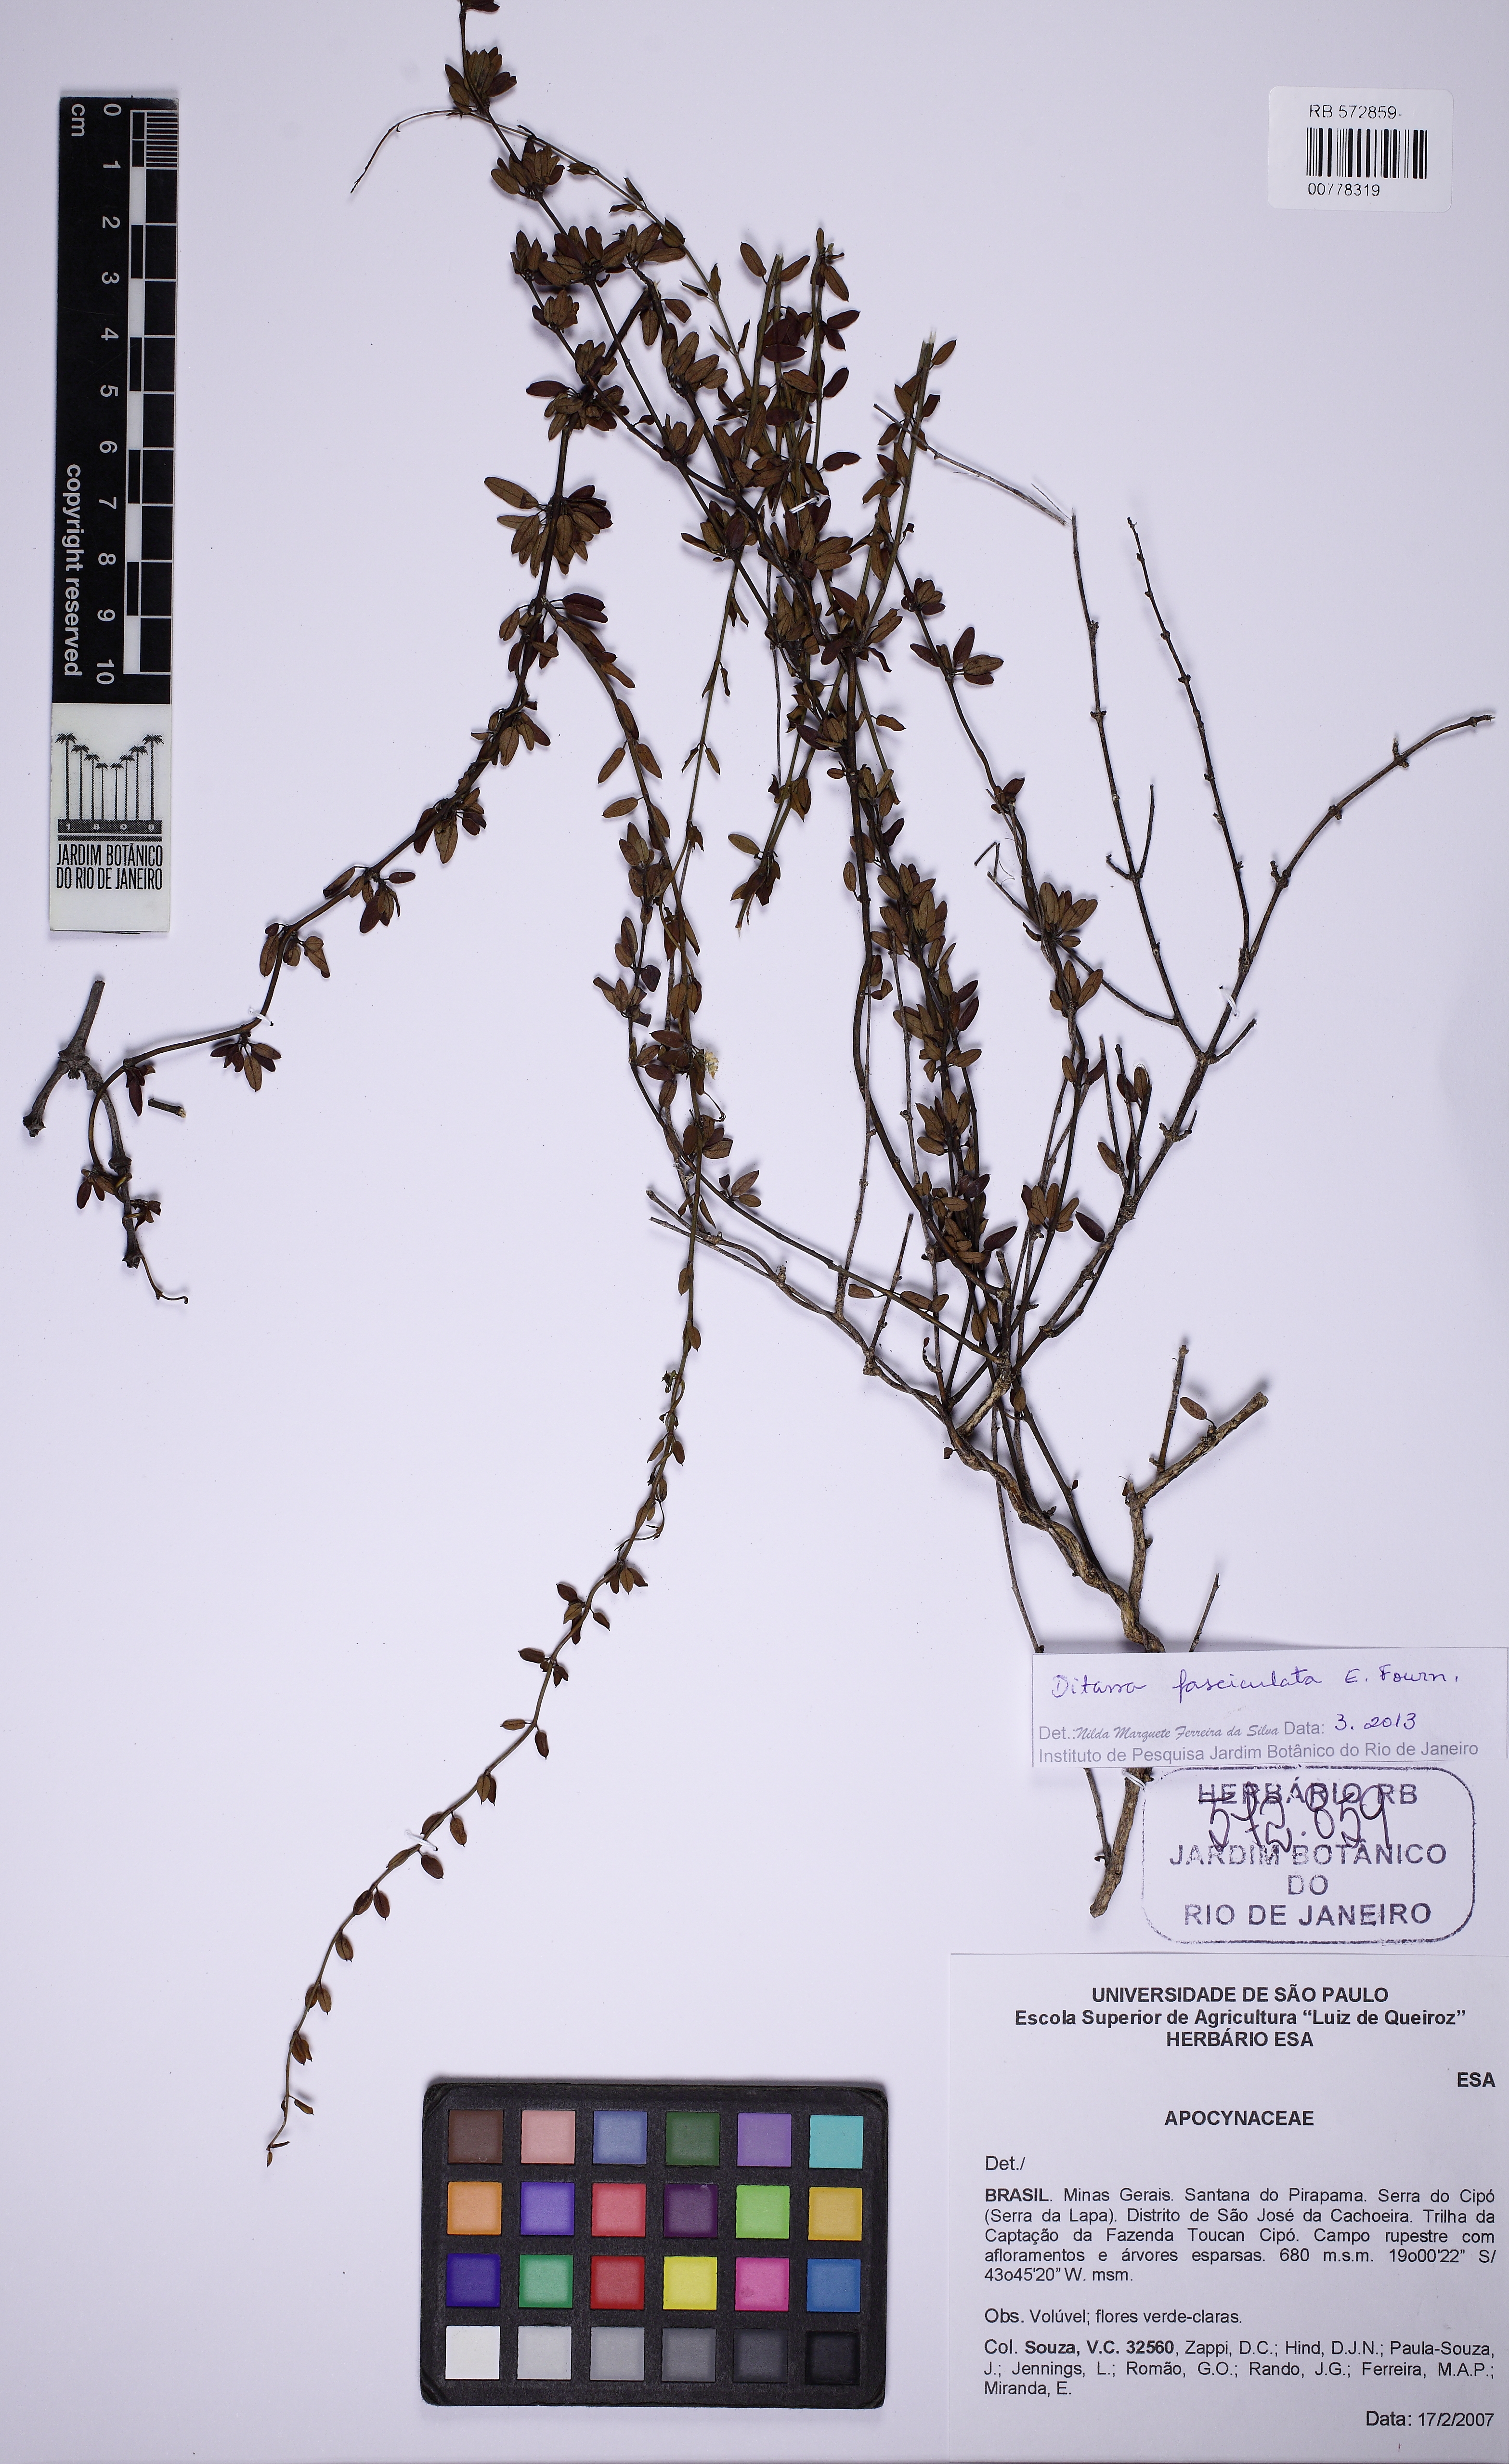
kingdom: Plantae
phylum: Tracheophyta
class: Magnoliopsida
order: Gentianales
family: Apocynaceae
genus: Ditassa
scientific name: Ditassa fasciculata
